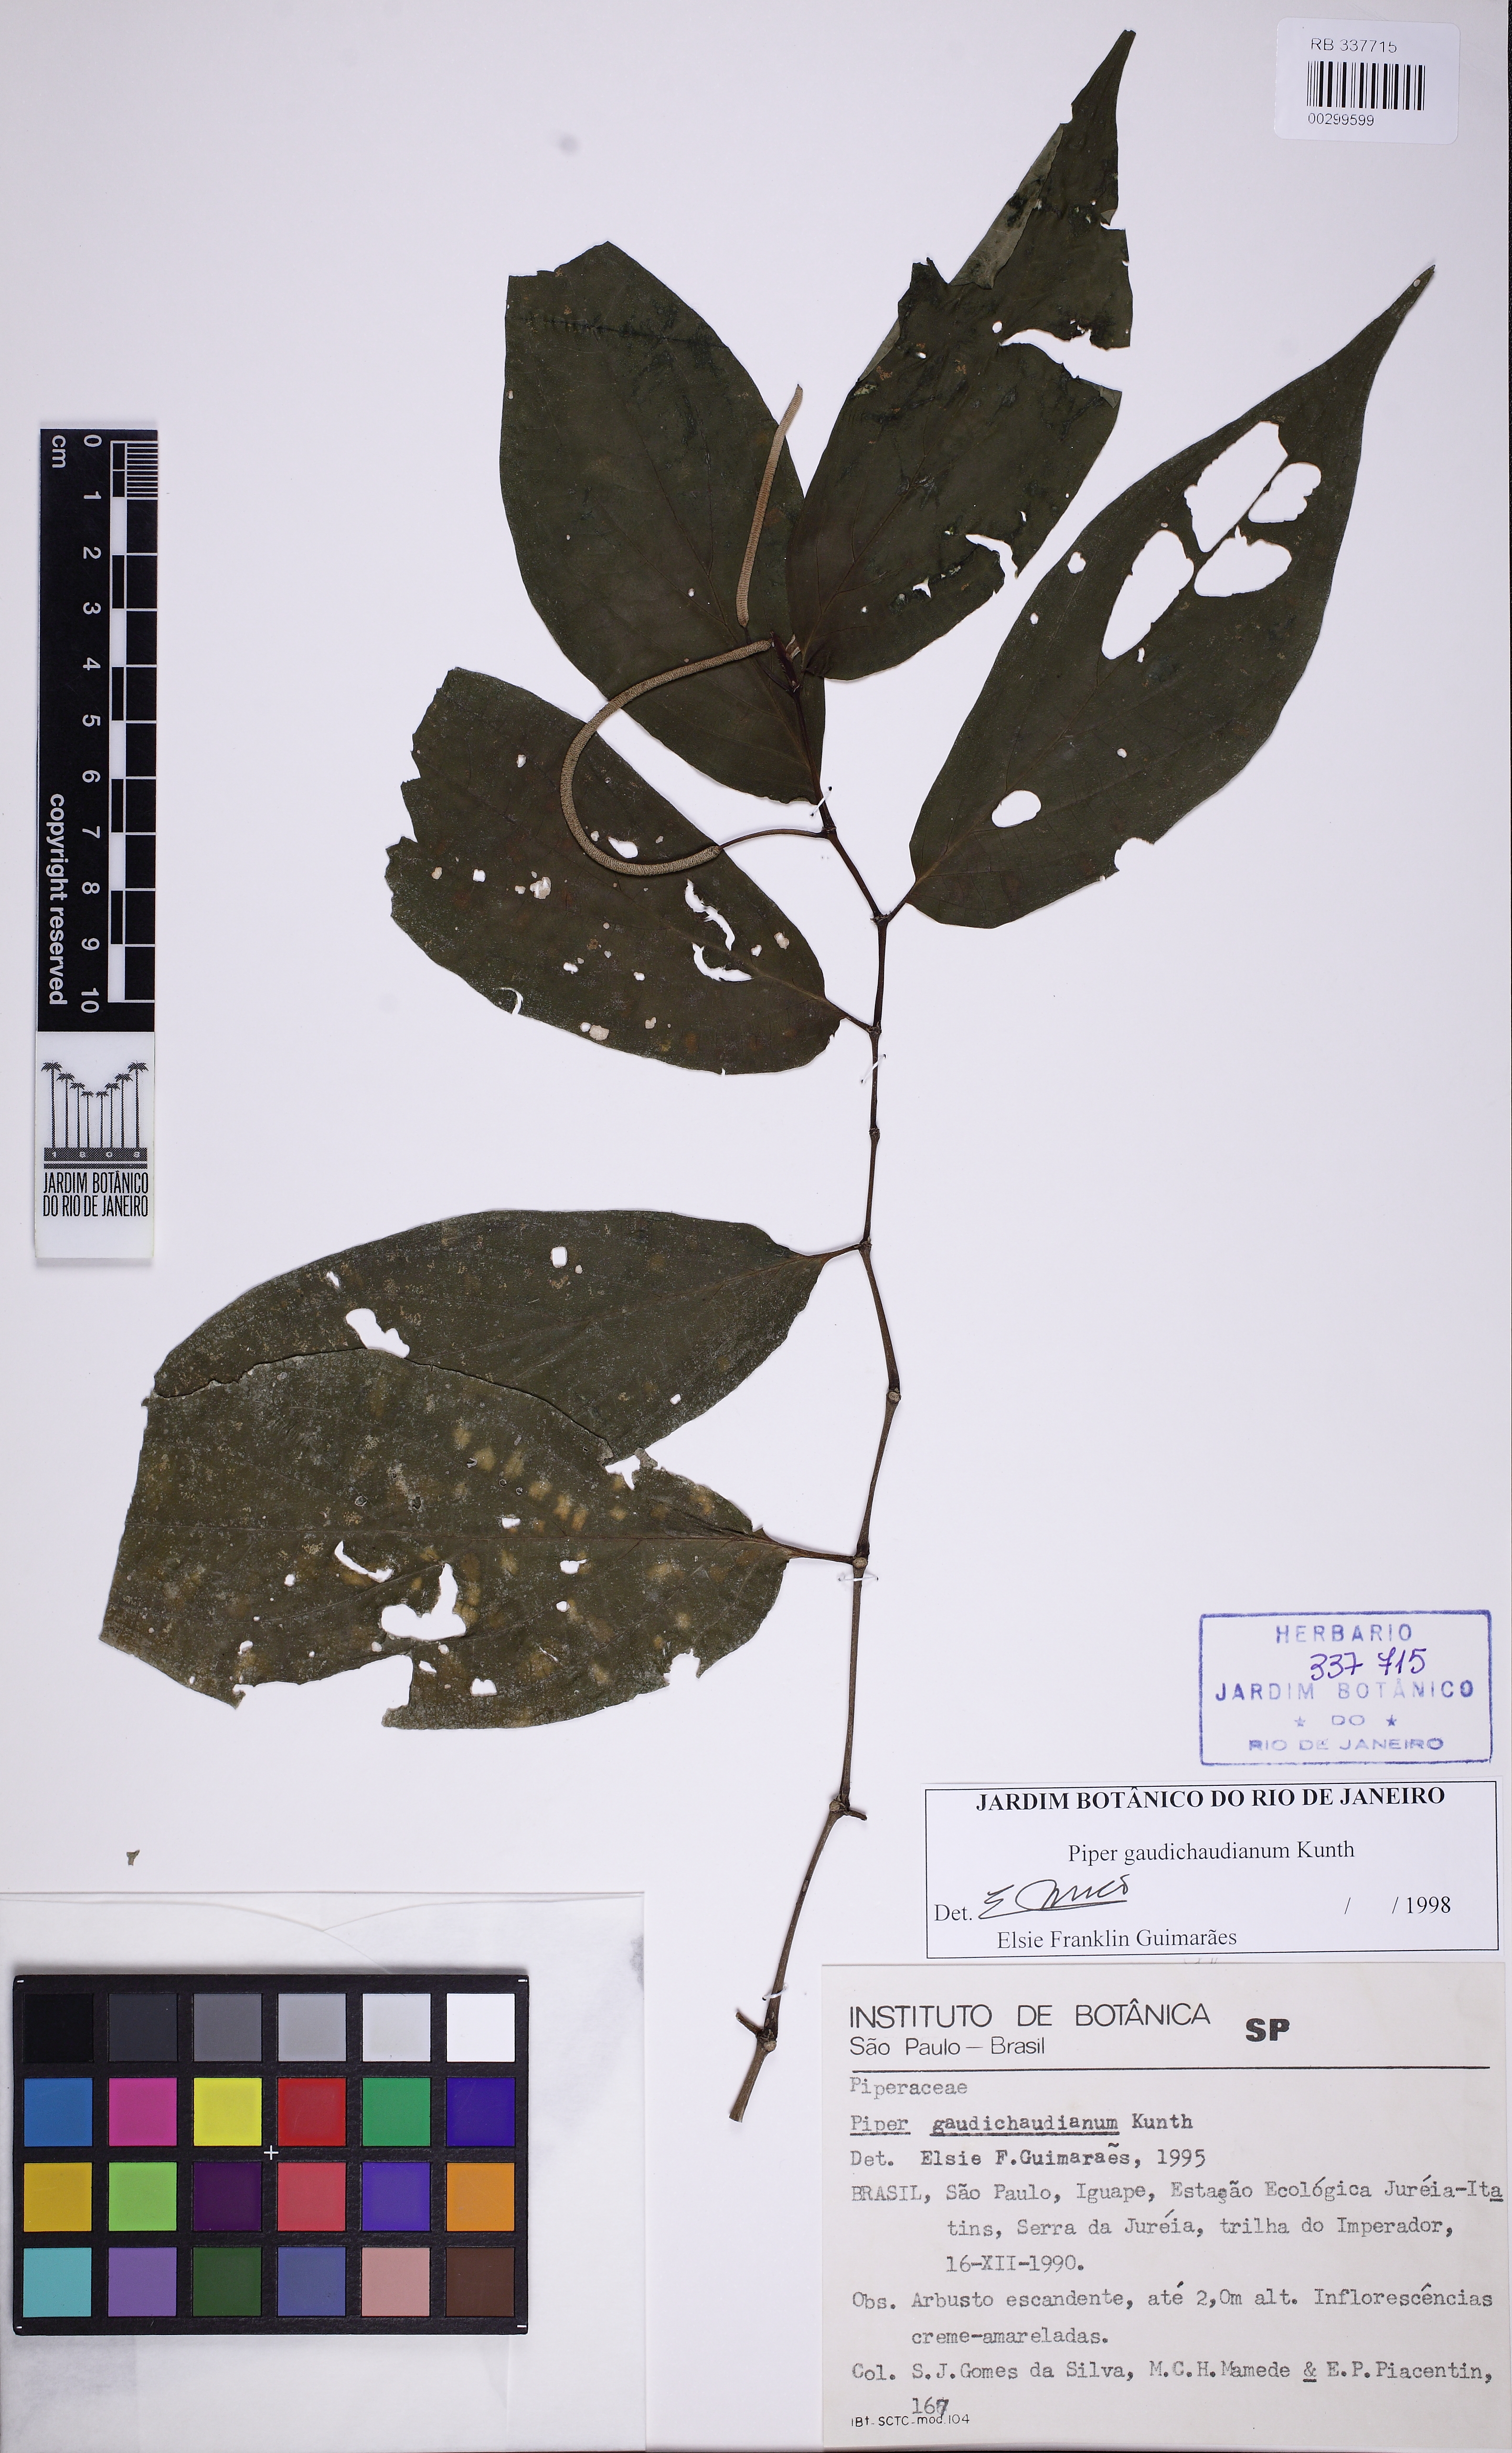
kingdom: Plantae
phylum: Tracheophyta
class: Magnoliopsida
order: Piperales
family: Piperaceae
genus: Piper
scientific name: Piper gaudichaudianum
